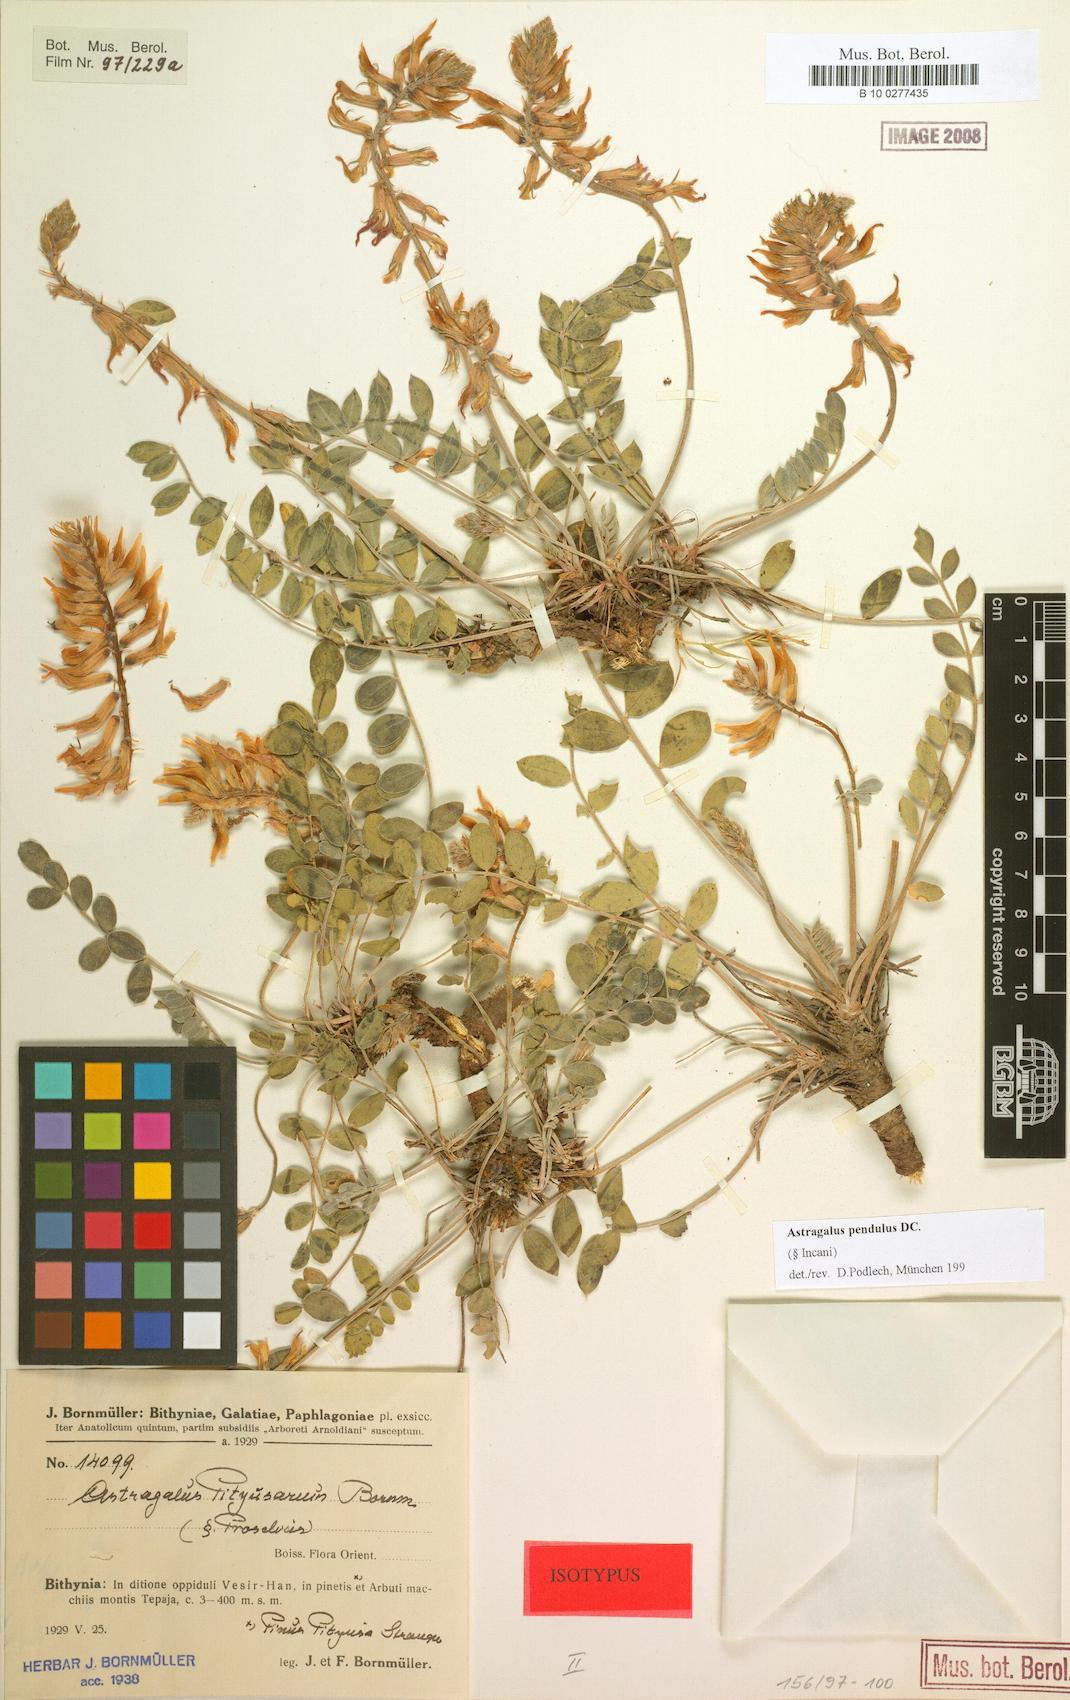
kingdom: Plantae
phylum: Tracheophyta
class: Magnoliopsida
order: Fabales
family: Fabaceae
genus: Astragalus
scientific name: Astragalus pendulus
